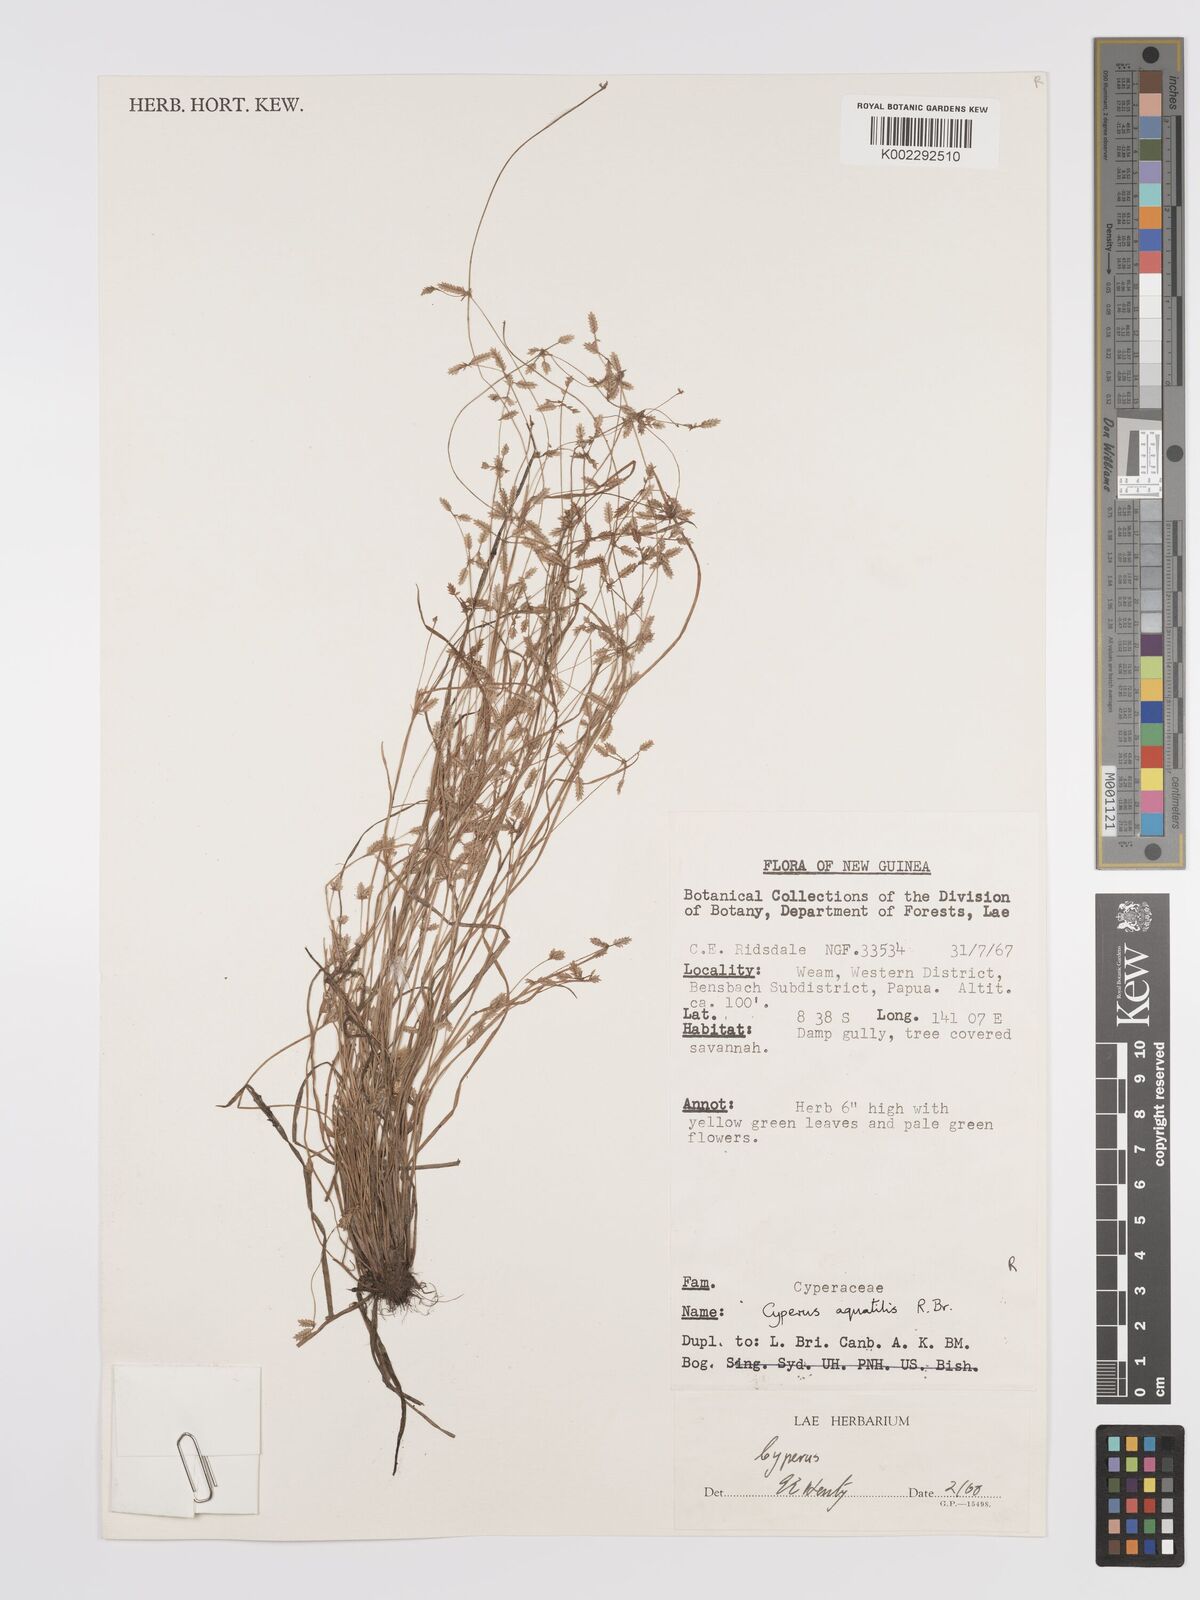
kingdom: Plantae
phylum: Tracheophyta
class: Liliopsida
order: Poales
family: Cyperaceae
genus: Cyperus
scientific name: Cyperus aquatilis
